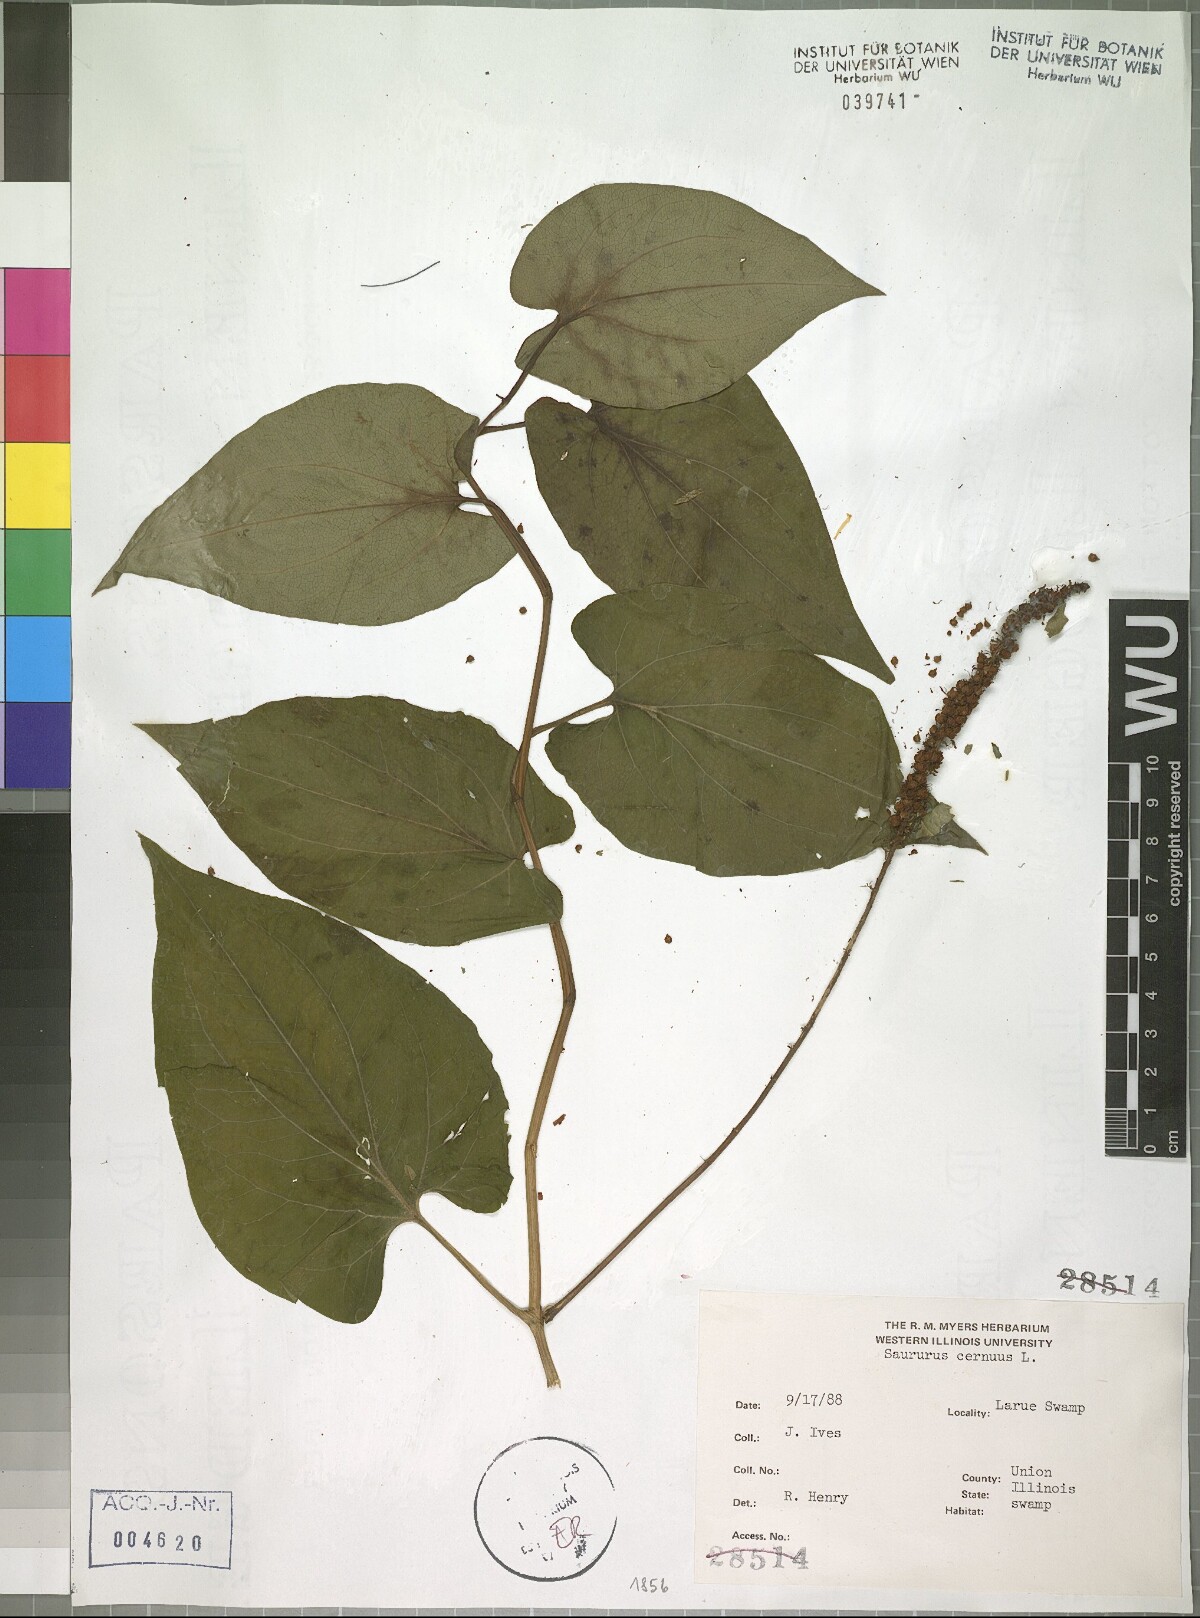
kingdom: Plantae
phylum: Tracheophyta
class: Magnoliopsida
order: Piperales
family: Saururaceae
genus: Saururus
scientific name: Saururus cernuus
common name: Lizard's-tail
